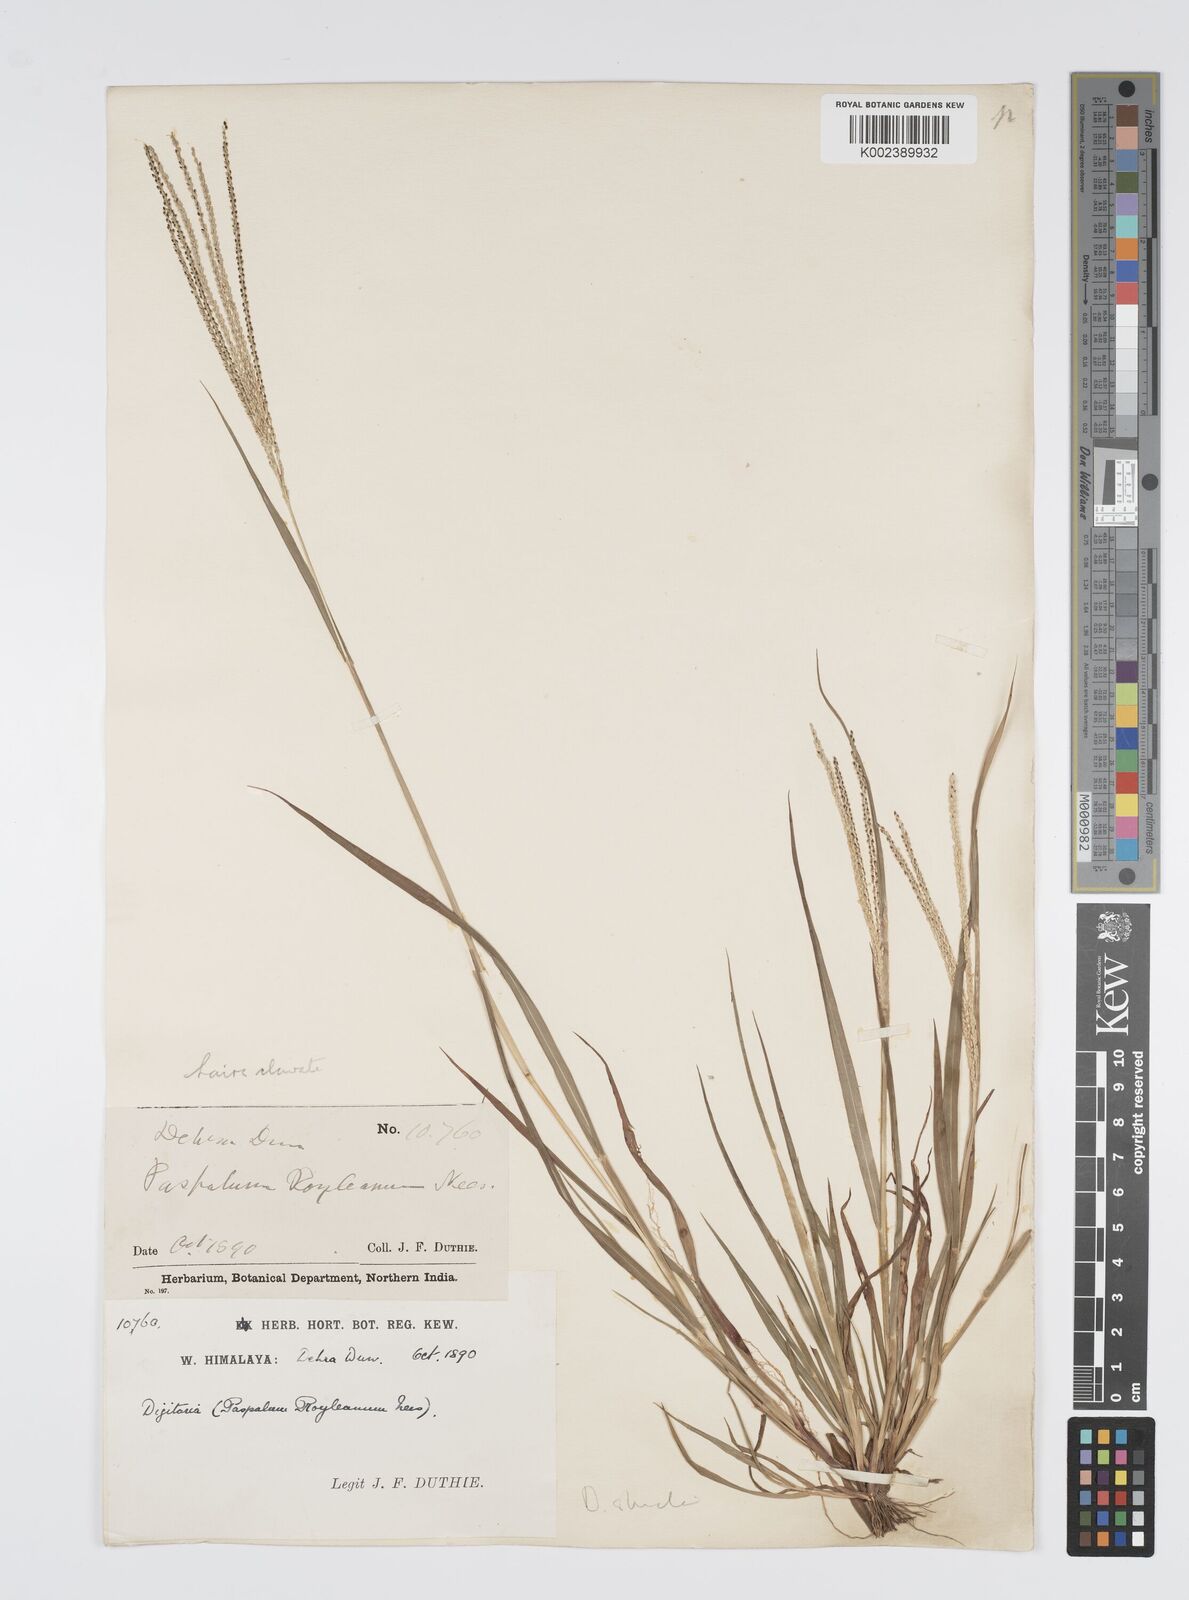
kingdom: Plantae
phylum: Tracheophyta
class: Liliopsida
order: Poales
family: Poaceae
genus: Digitaria
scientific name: Digitaria stricta
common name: Crabgrass
